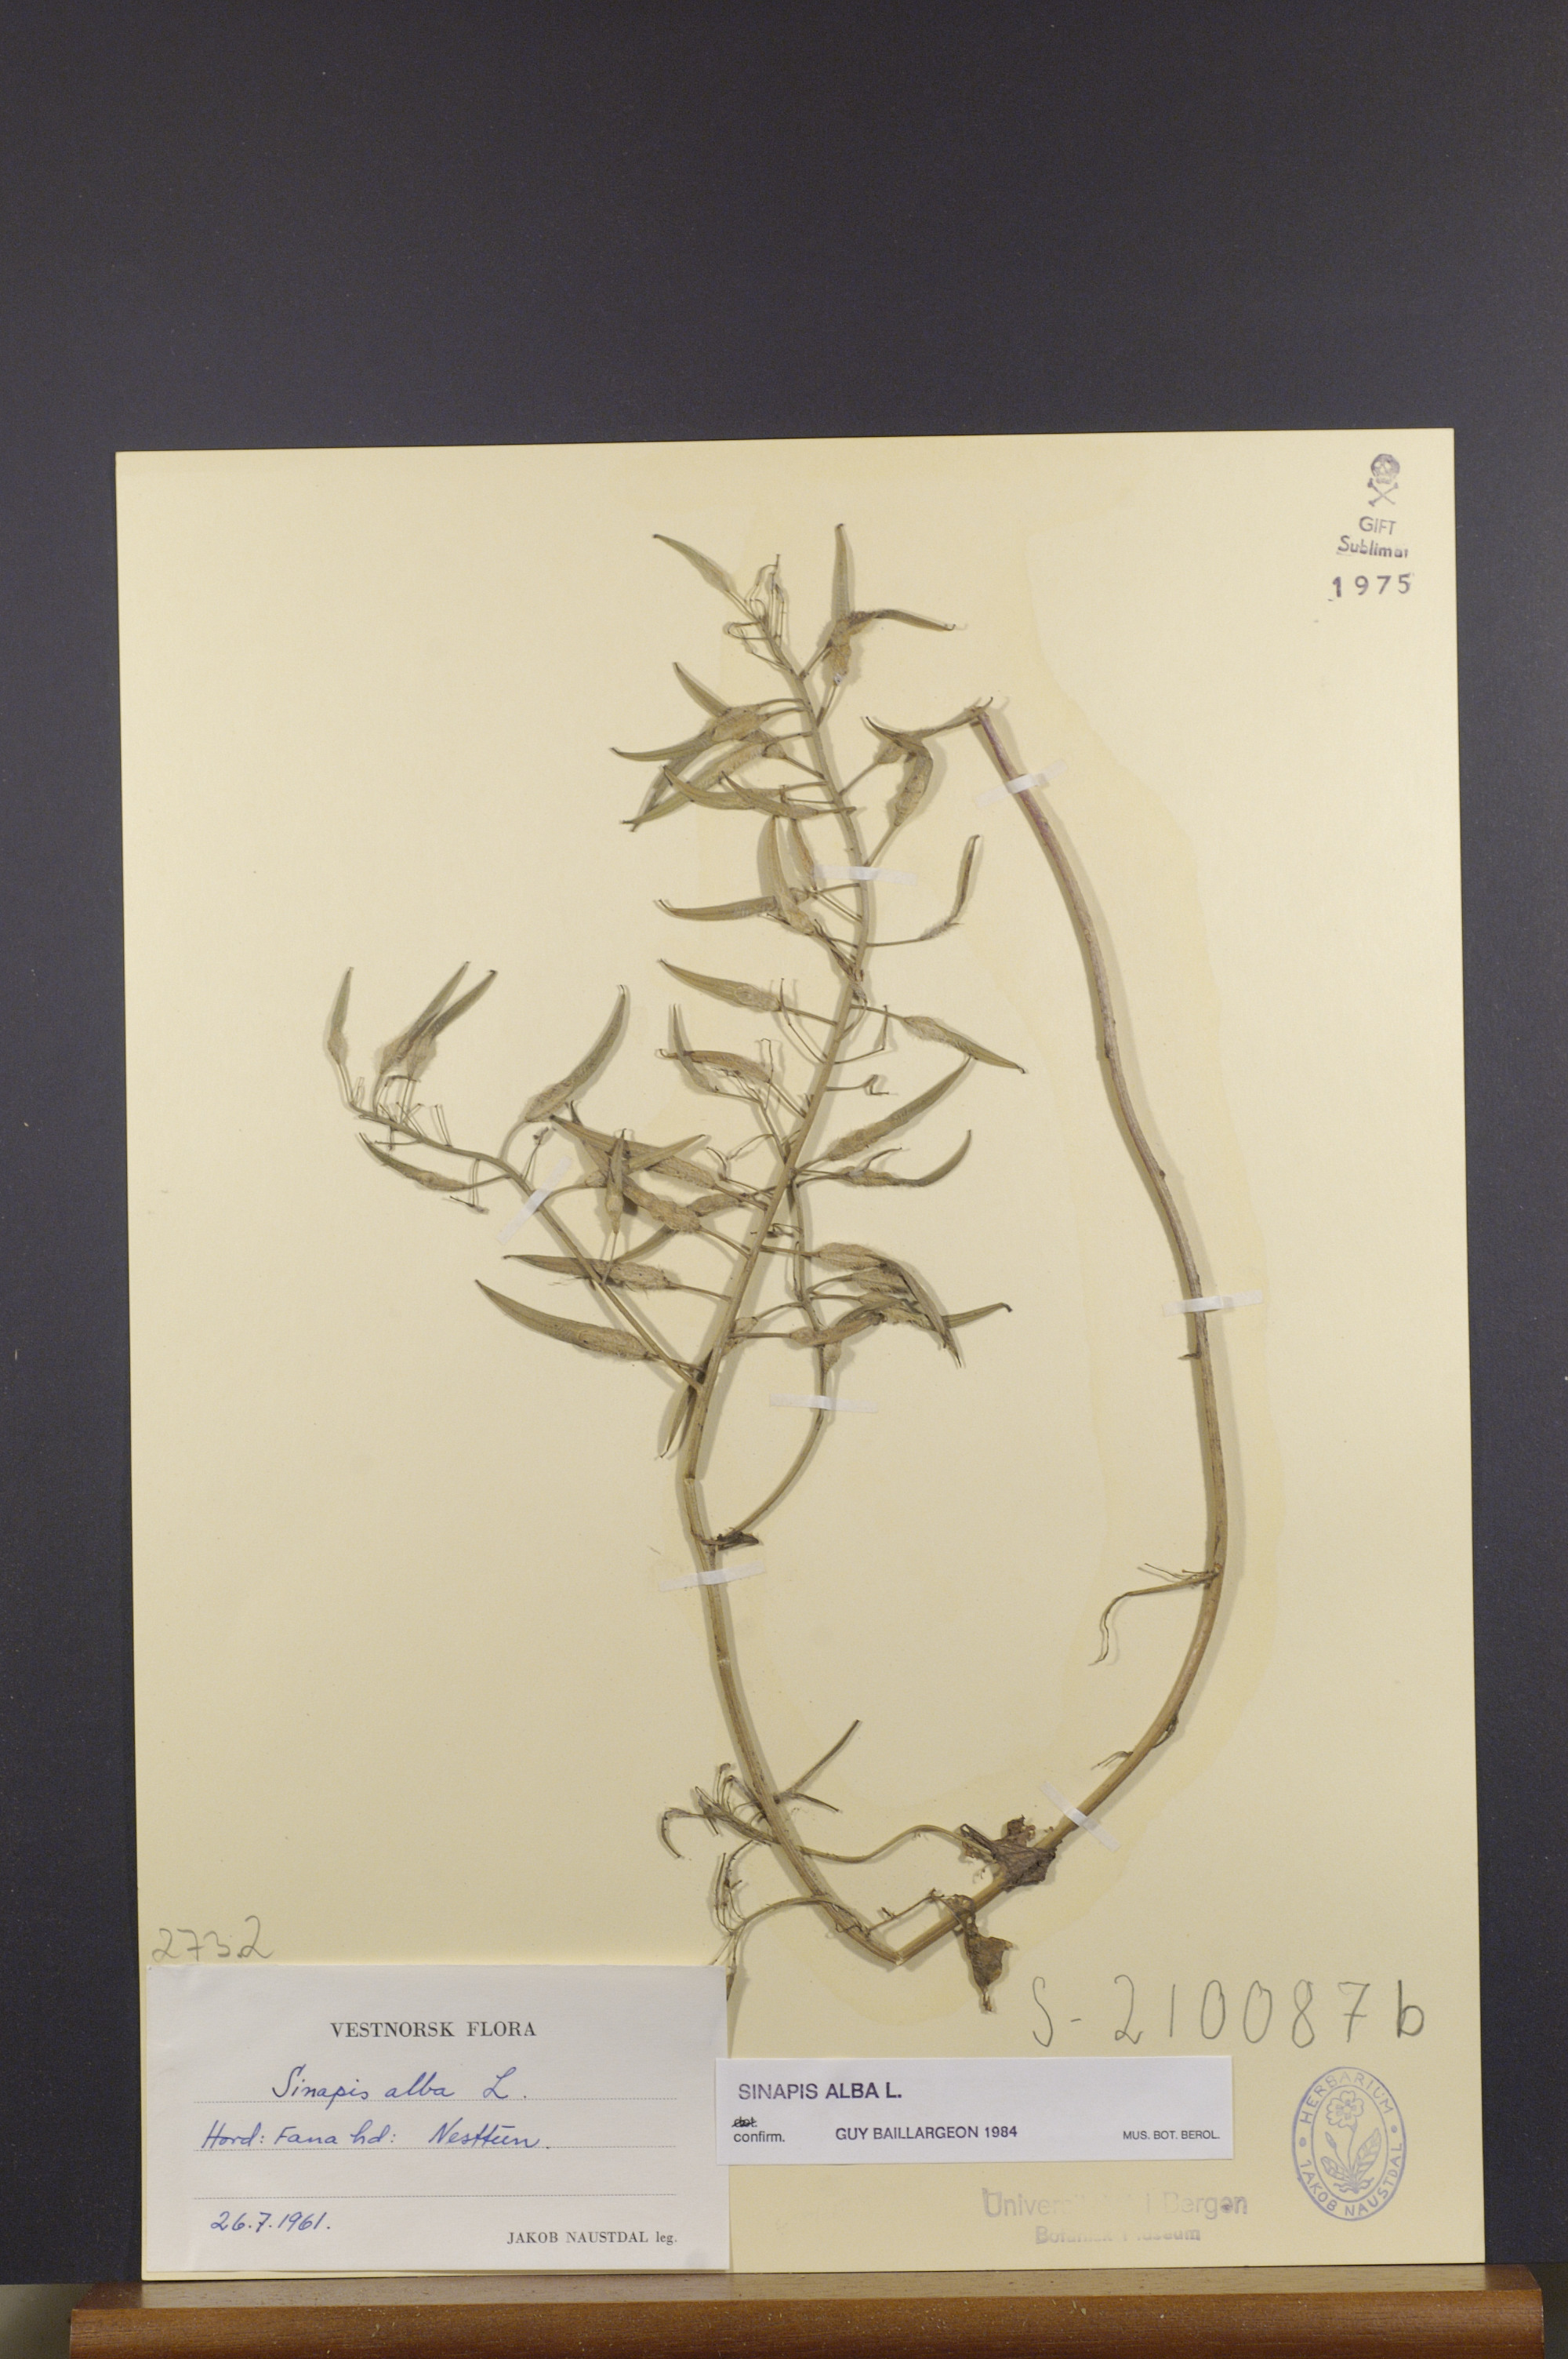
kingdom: Plantae
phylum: Tracheophyta
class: Magnoliopsida
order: Brassicales
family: Brassicaceae
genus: Sinapis
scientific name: Sinapis alba
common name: White mustard
